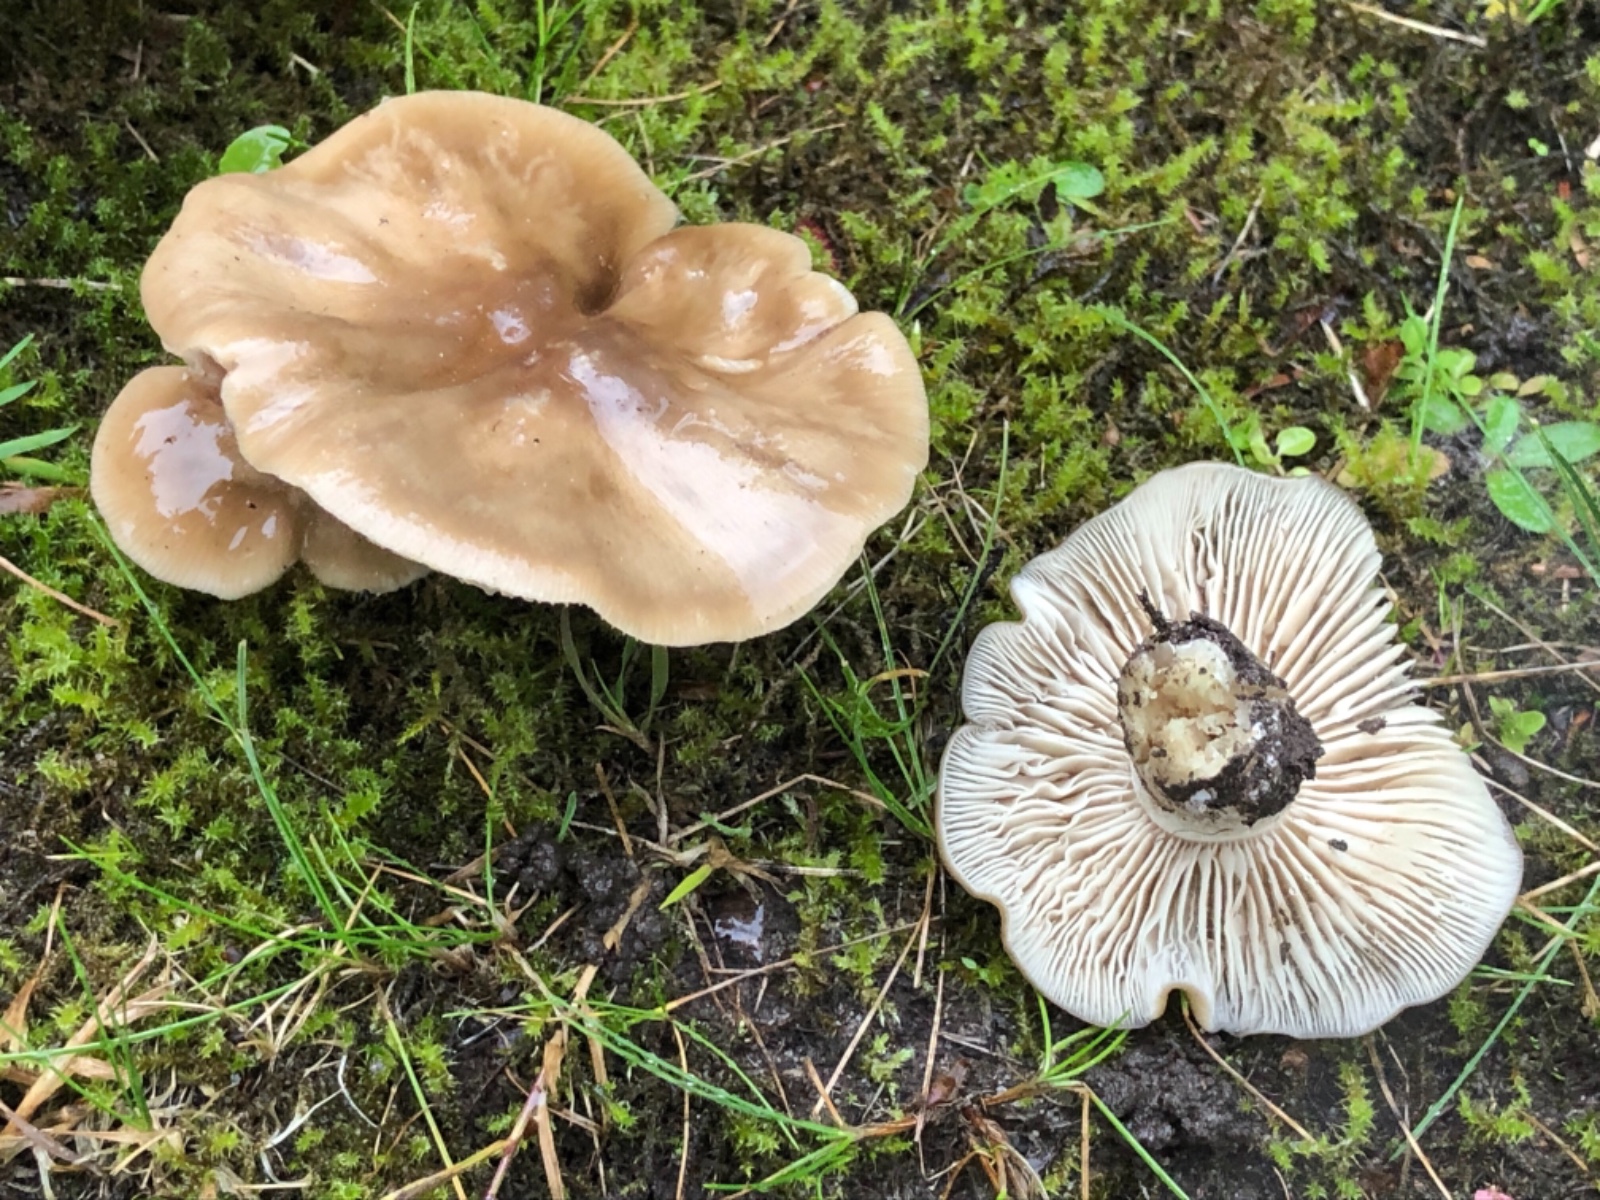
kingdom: Fungi
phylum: Basidiomycota
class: Agaricomycetes
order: Agaricales
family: Lyophyllaceae
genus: Lyophyllum
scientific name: Lyophyllum decastes
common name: Clustered domecap
